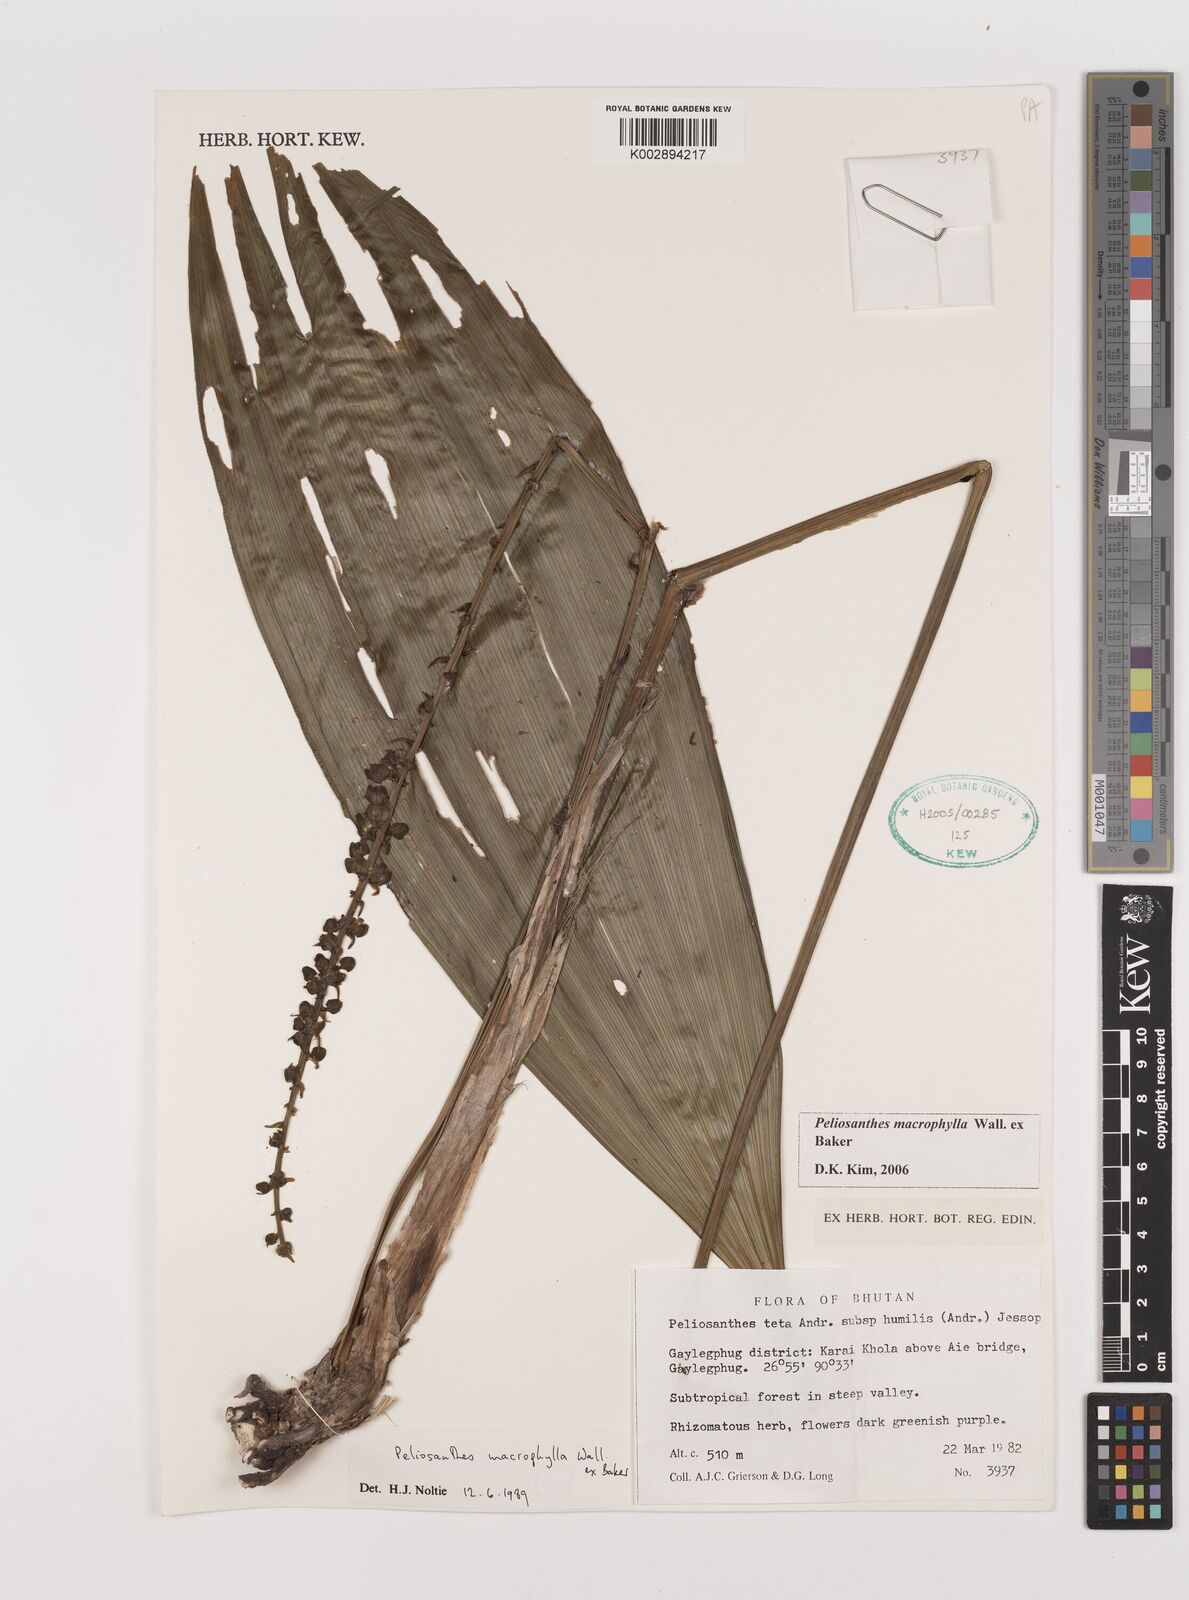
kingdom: Plantae
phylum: Tracheophyta
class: Liliopsida
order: Asparagales
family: Asparagaceae
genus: Peliosanthes
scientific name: Peliosanthes teta
